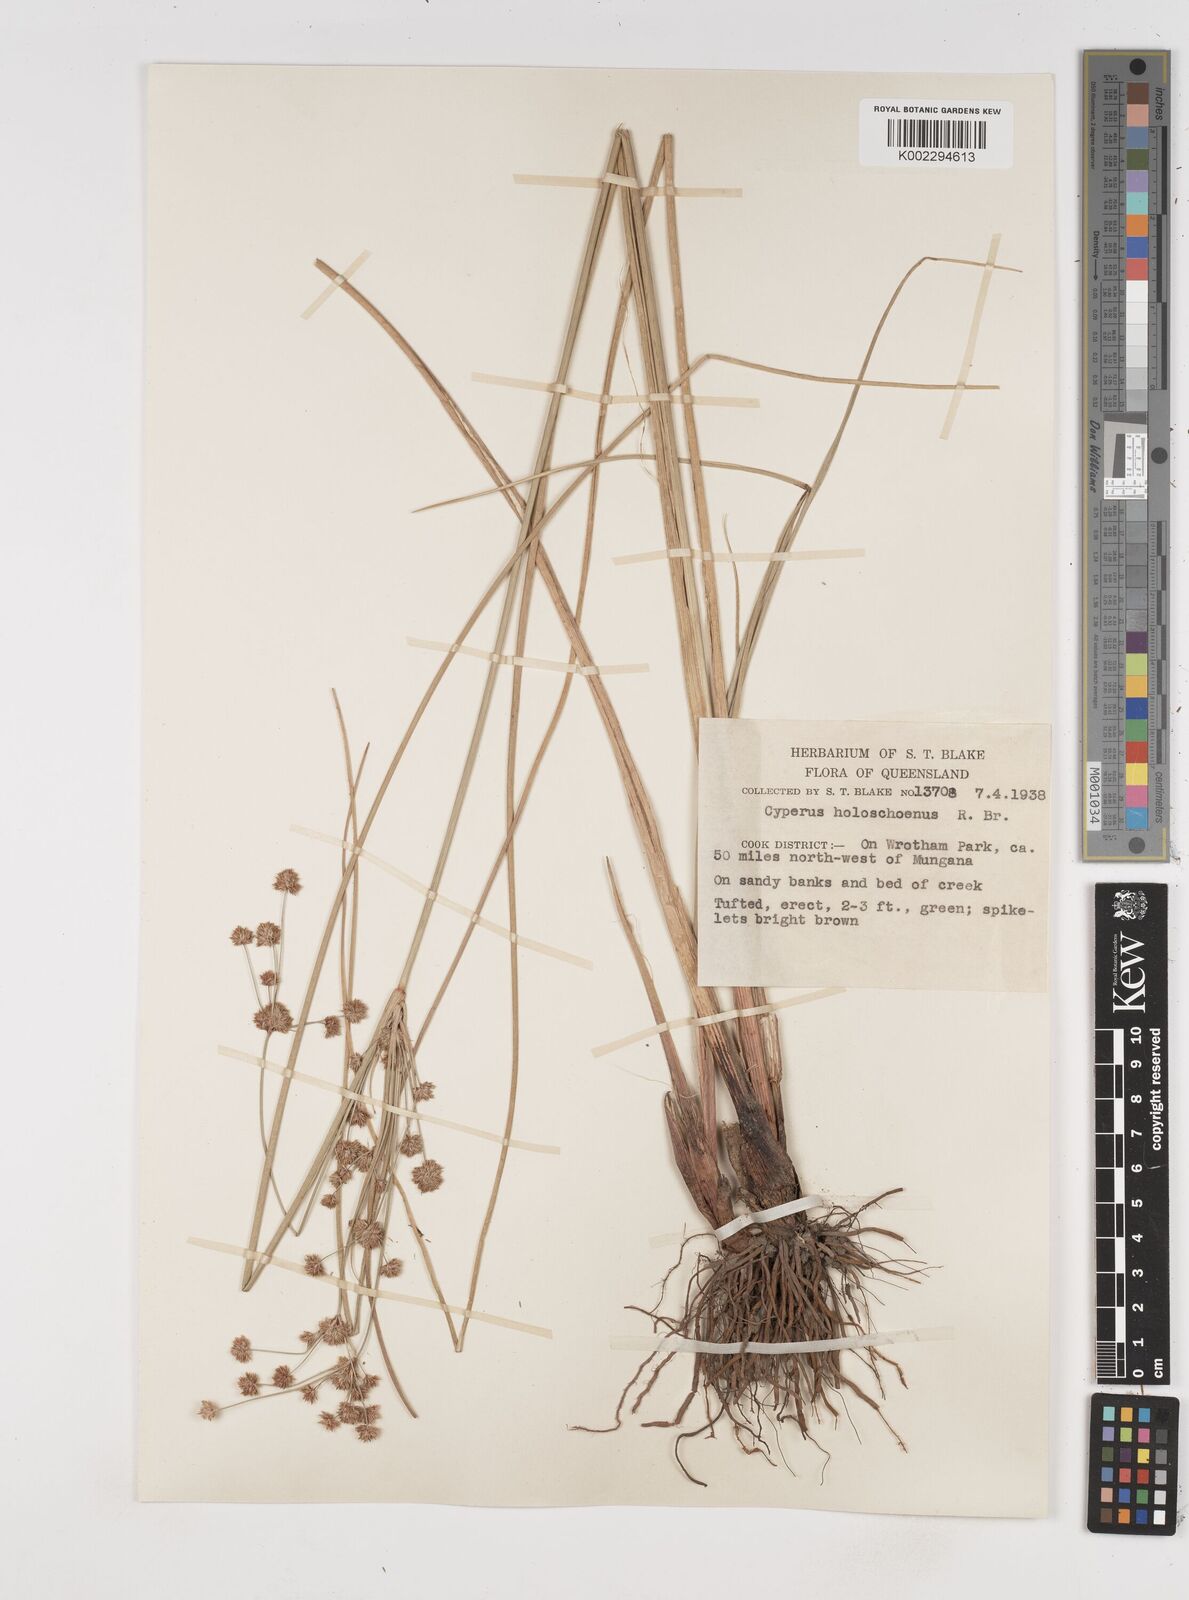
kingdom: Plantae
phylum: Tracheophyta
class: Liliopsida
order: Poales
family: Cyperaceae
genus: Cyperus
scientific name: Cyperus holoschoenus
